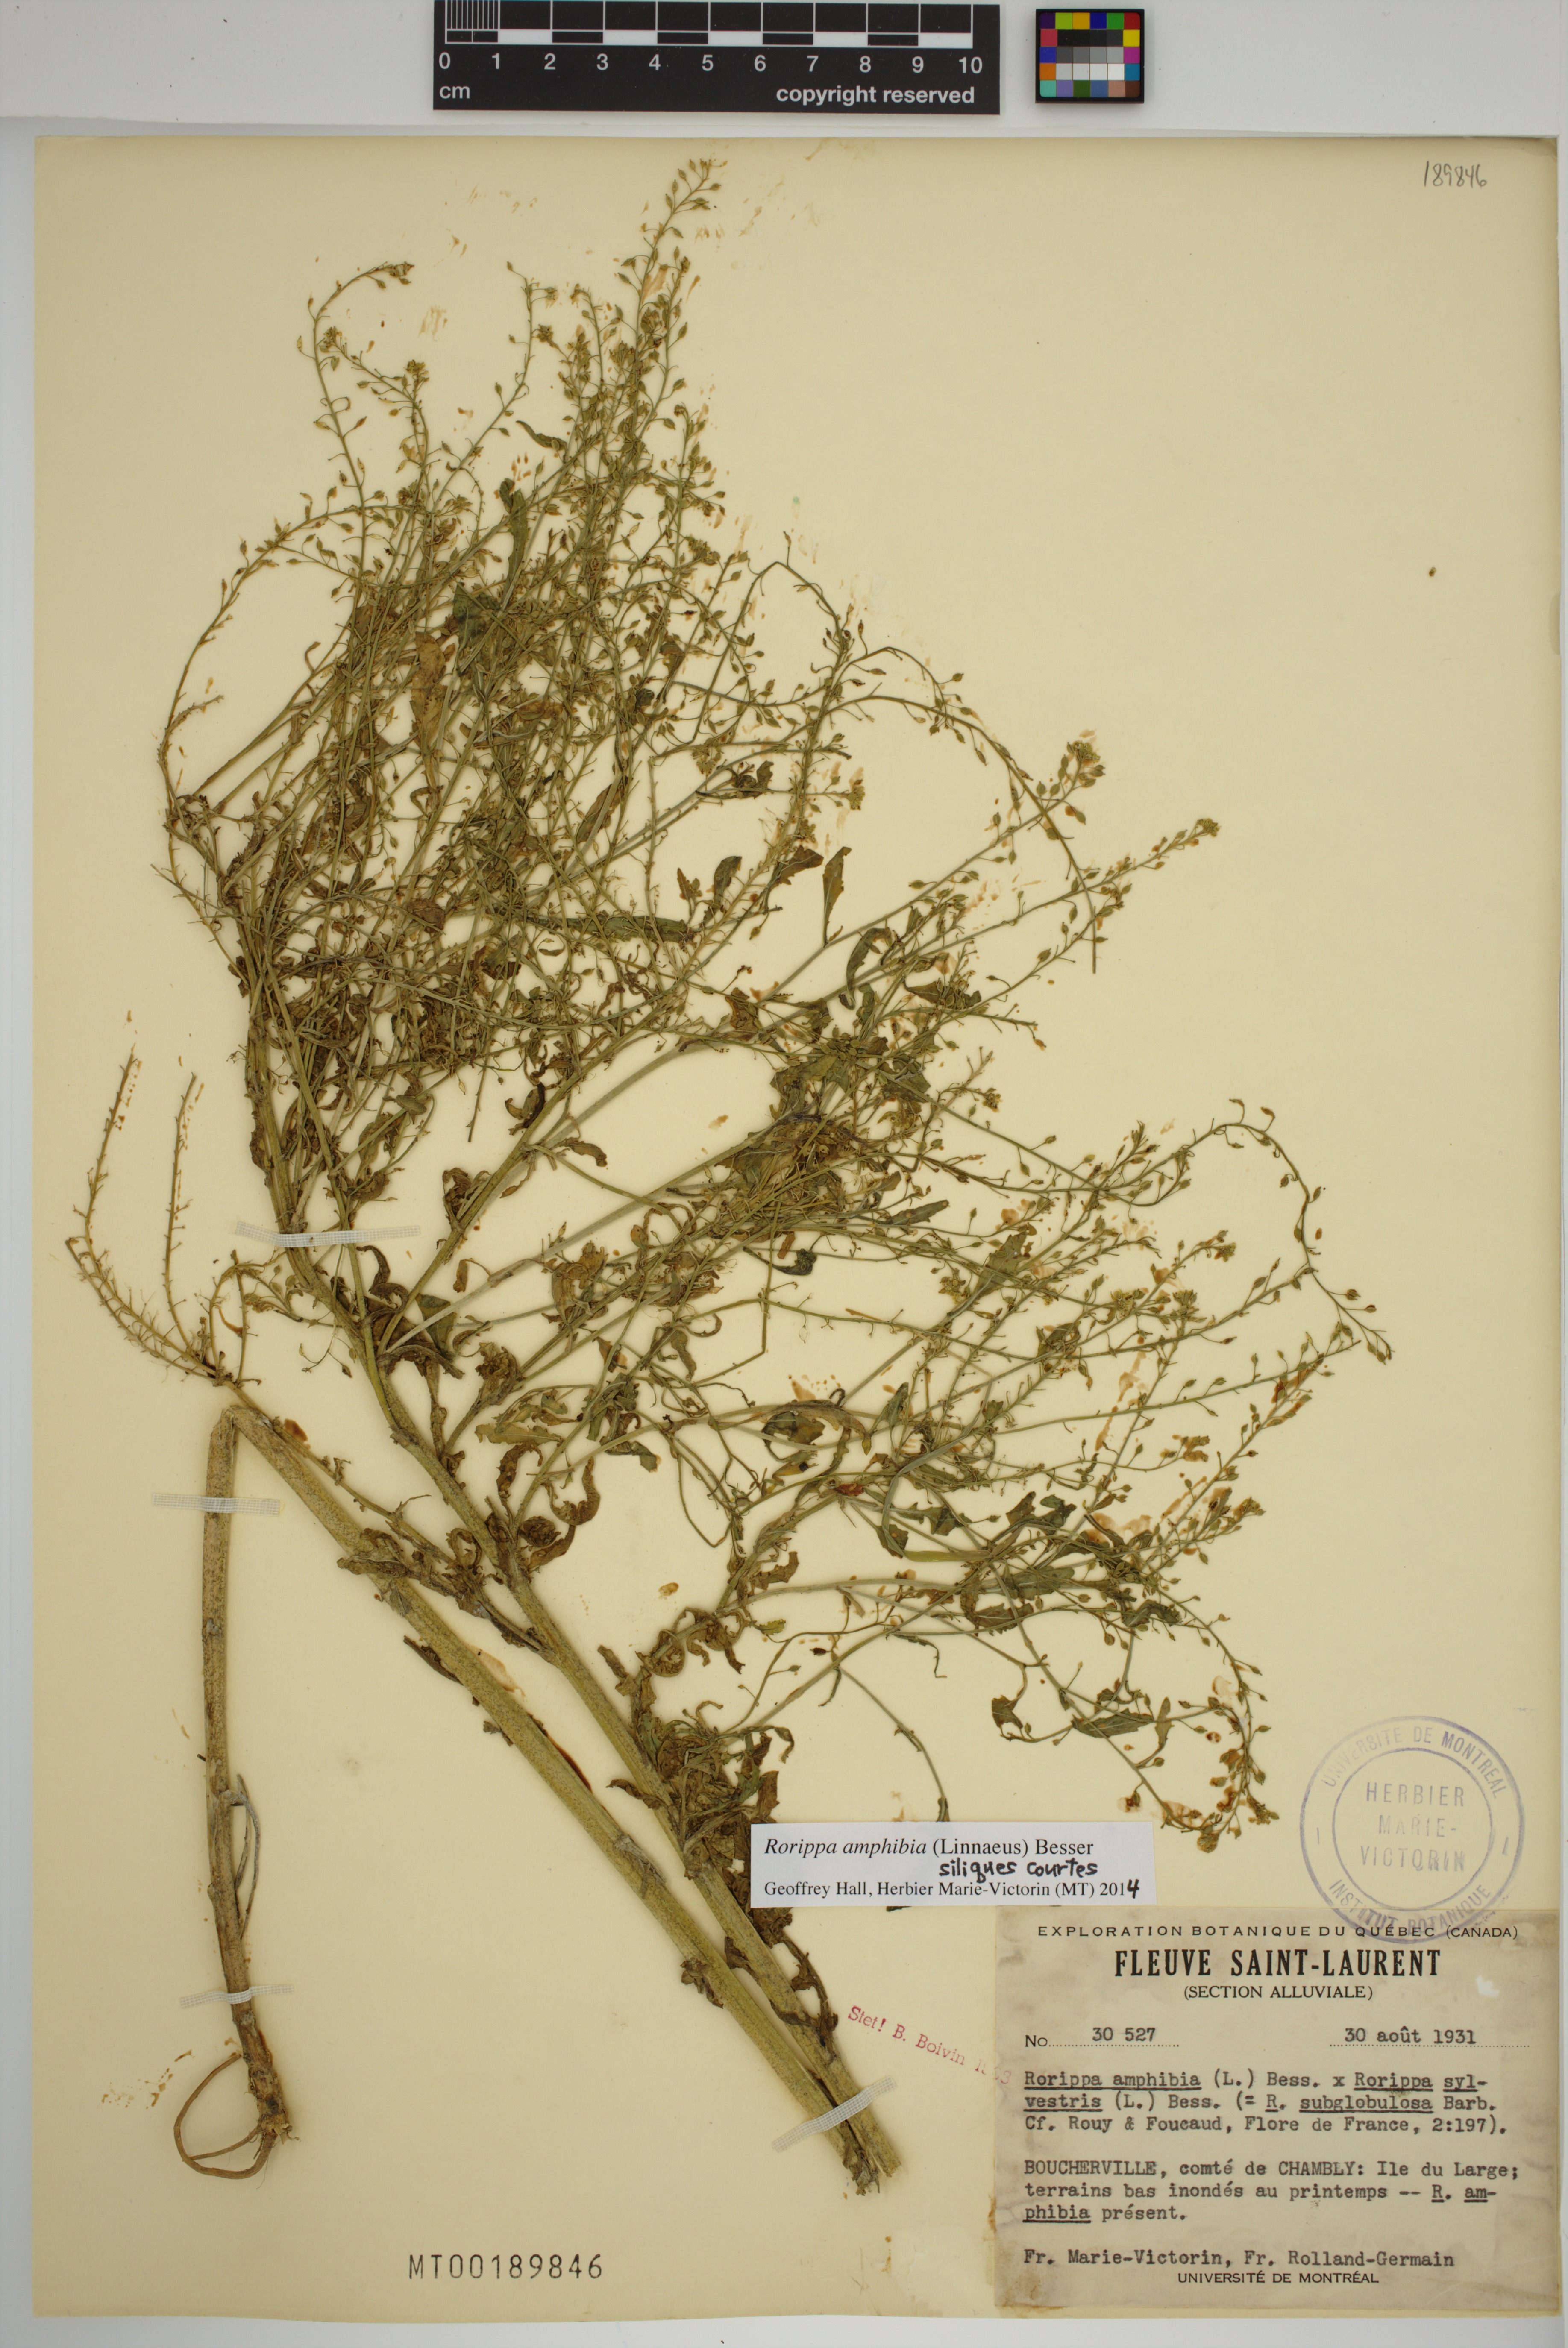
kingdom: Plantae
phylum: Tracheophyta
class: Magnoliopsida
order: Brassicales
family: Brassicaceae
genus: Rorippa
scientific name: Rorippa amphibia
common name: Great yellow-cress
